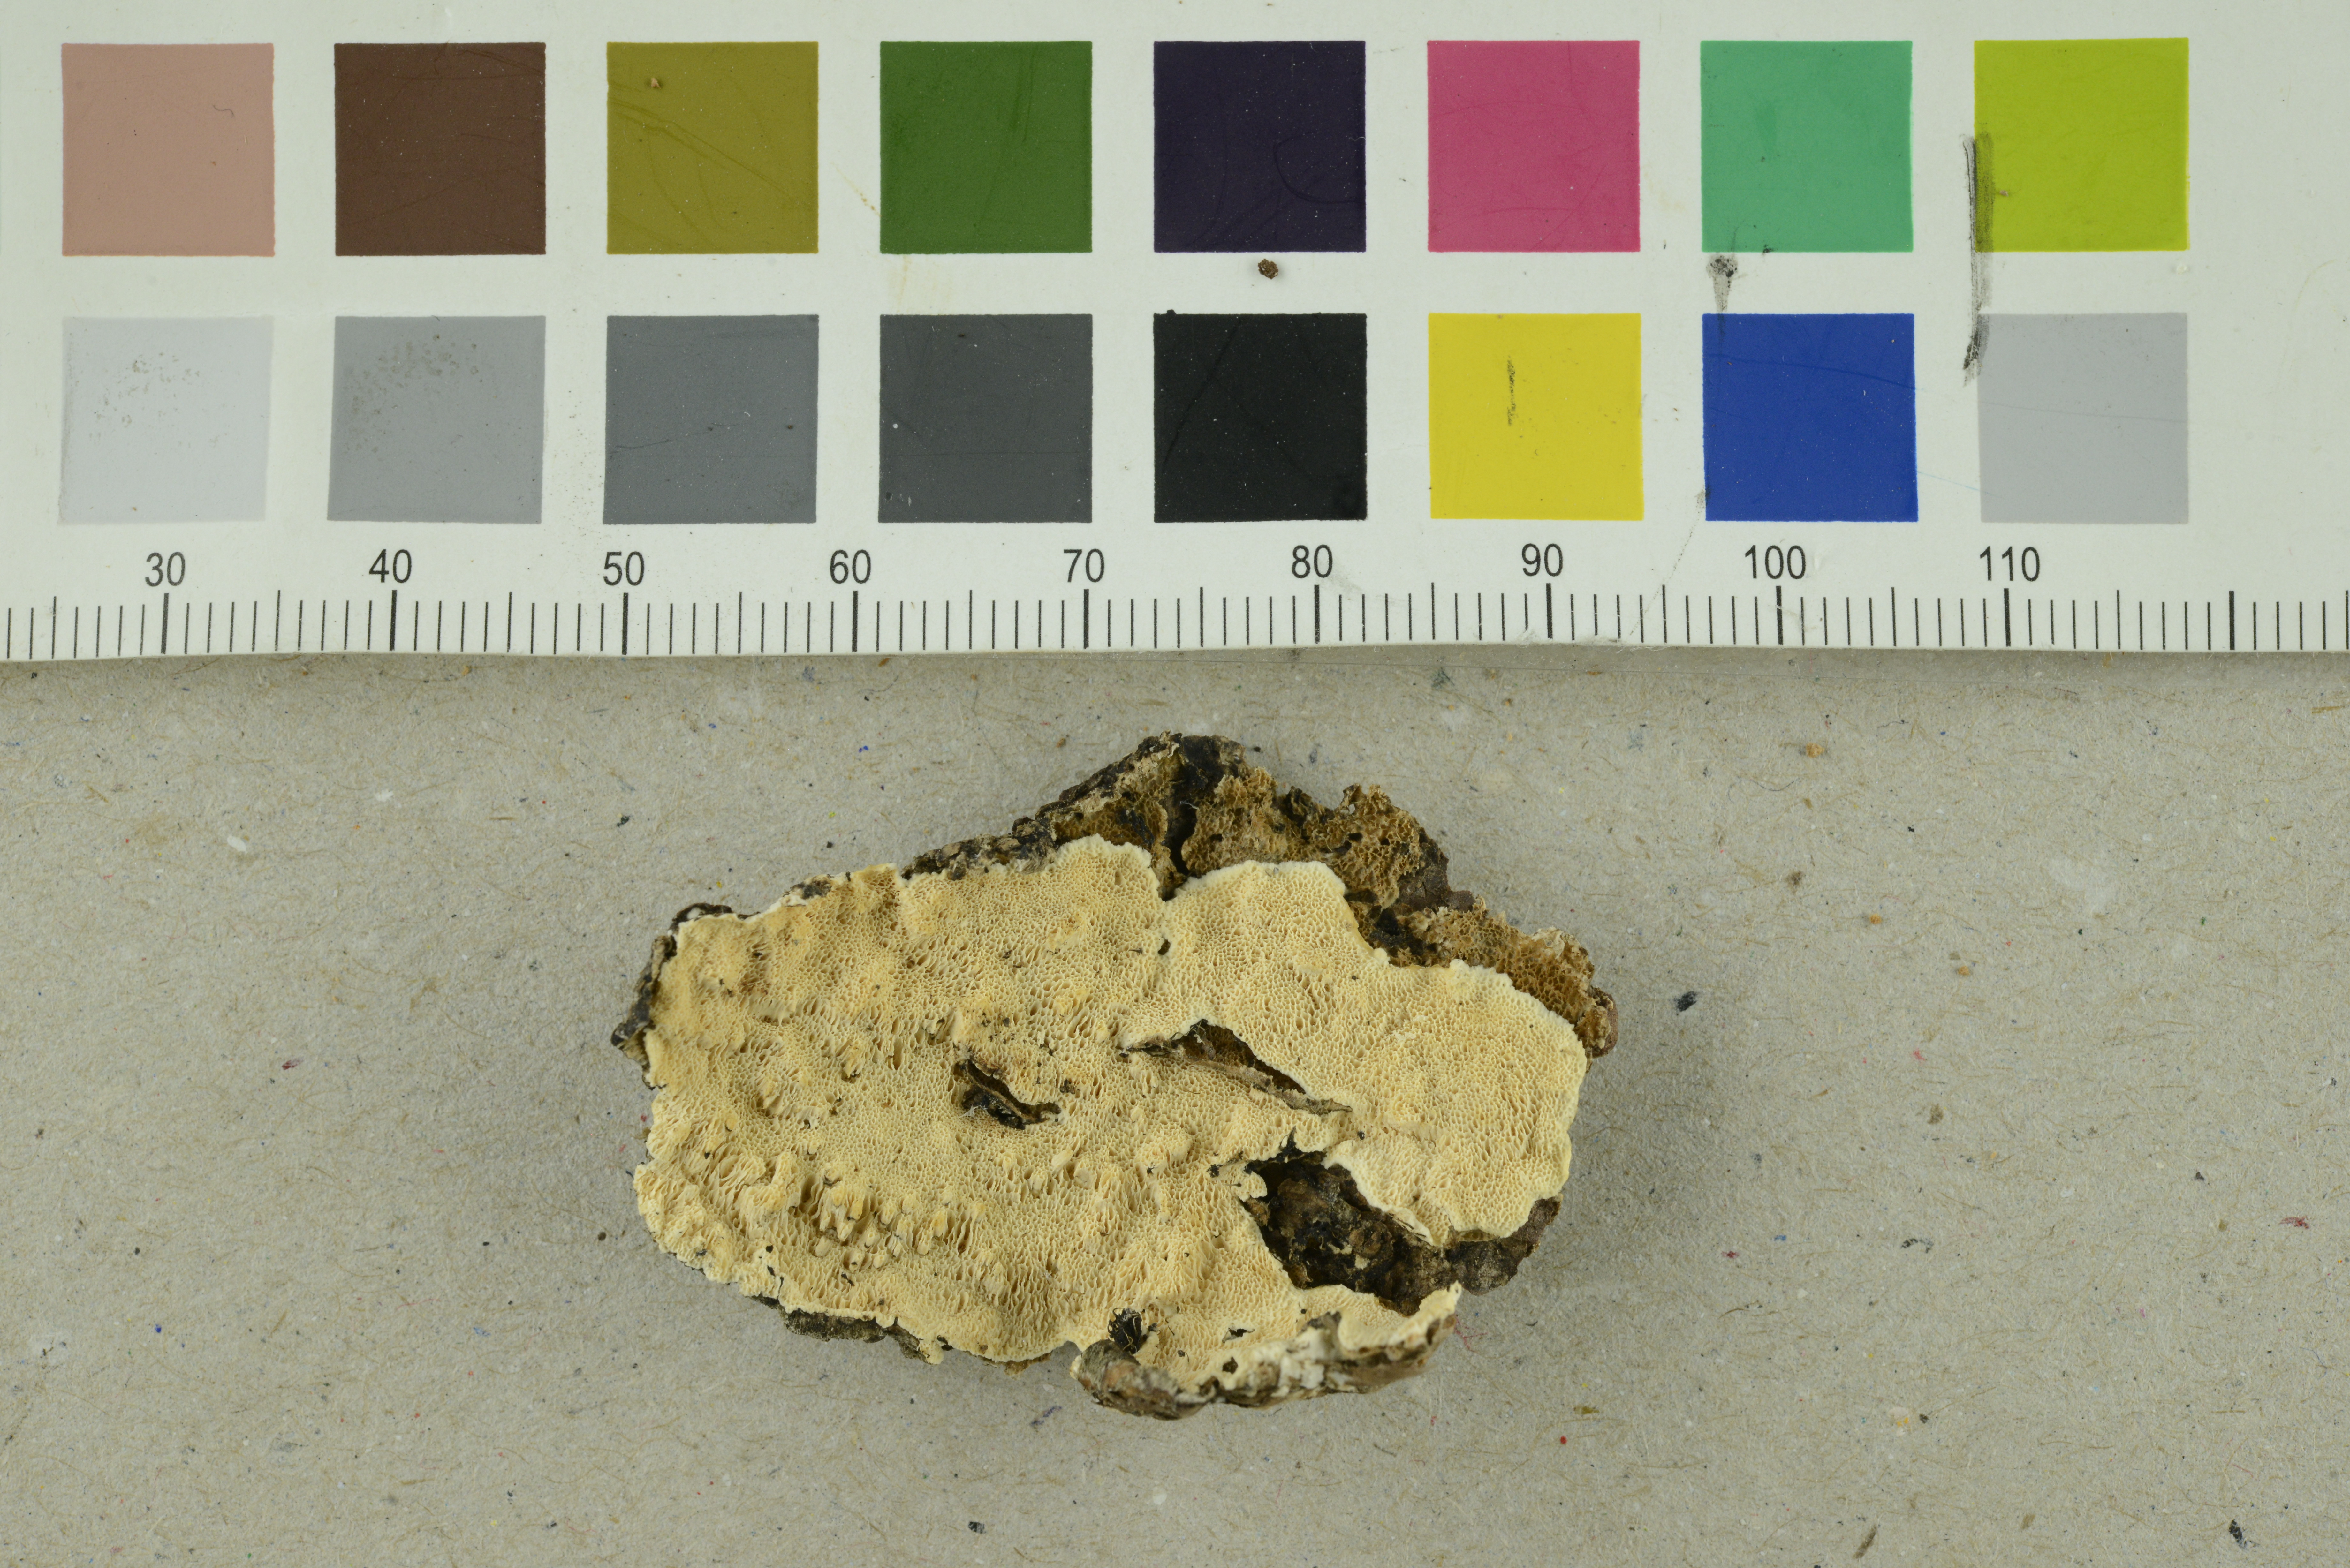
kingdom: Fungi
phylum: Basidiomycota
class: Agaricomycetes
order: Polyporales
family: Steccherinaceae
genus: Antrodiella
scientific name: Antrodiella parasitica
